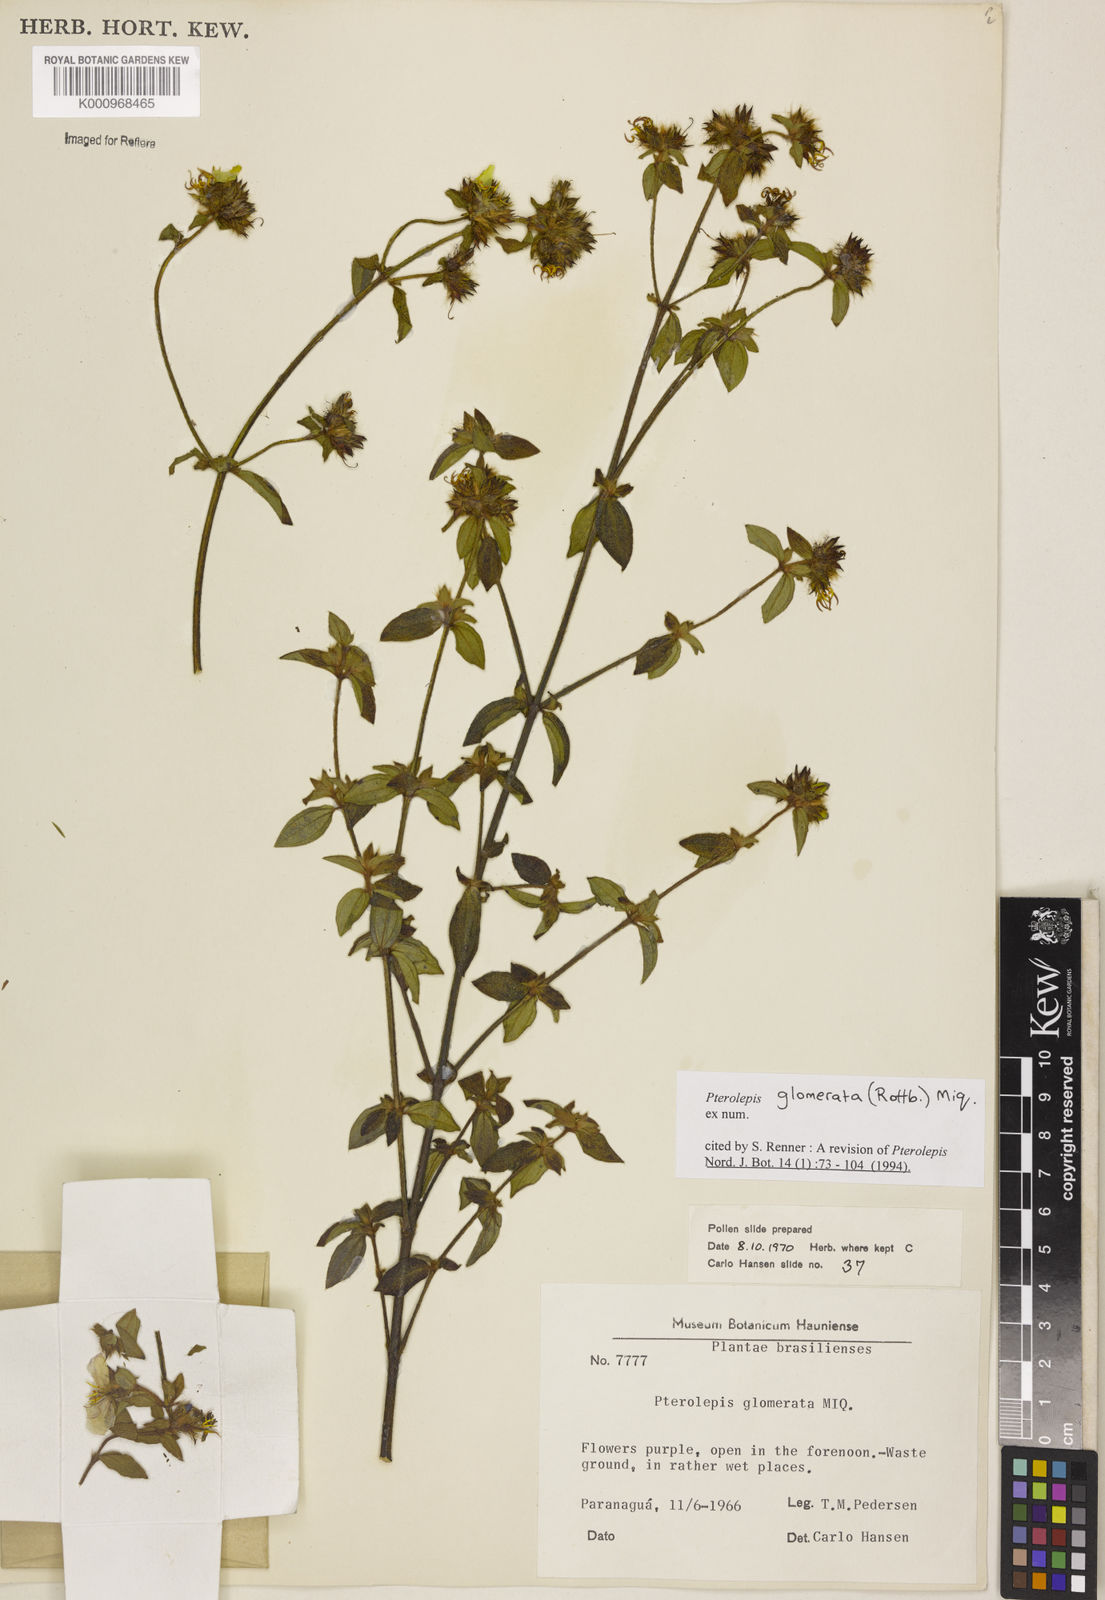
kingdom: Plantae
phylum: Tracheophyta
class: Magnoliopsida
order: Myrtales
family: Melastomataceae
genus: Pterolepis
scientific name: Pterolepis glomerata
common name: False meadowbeauty
